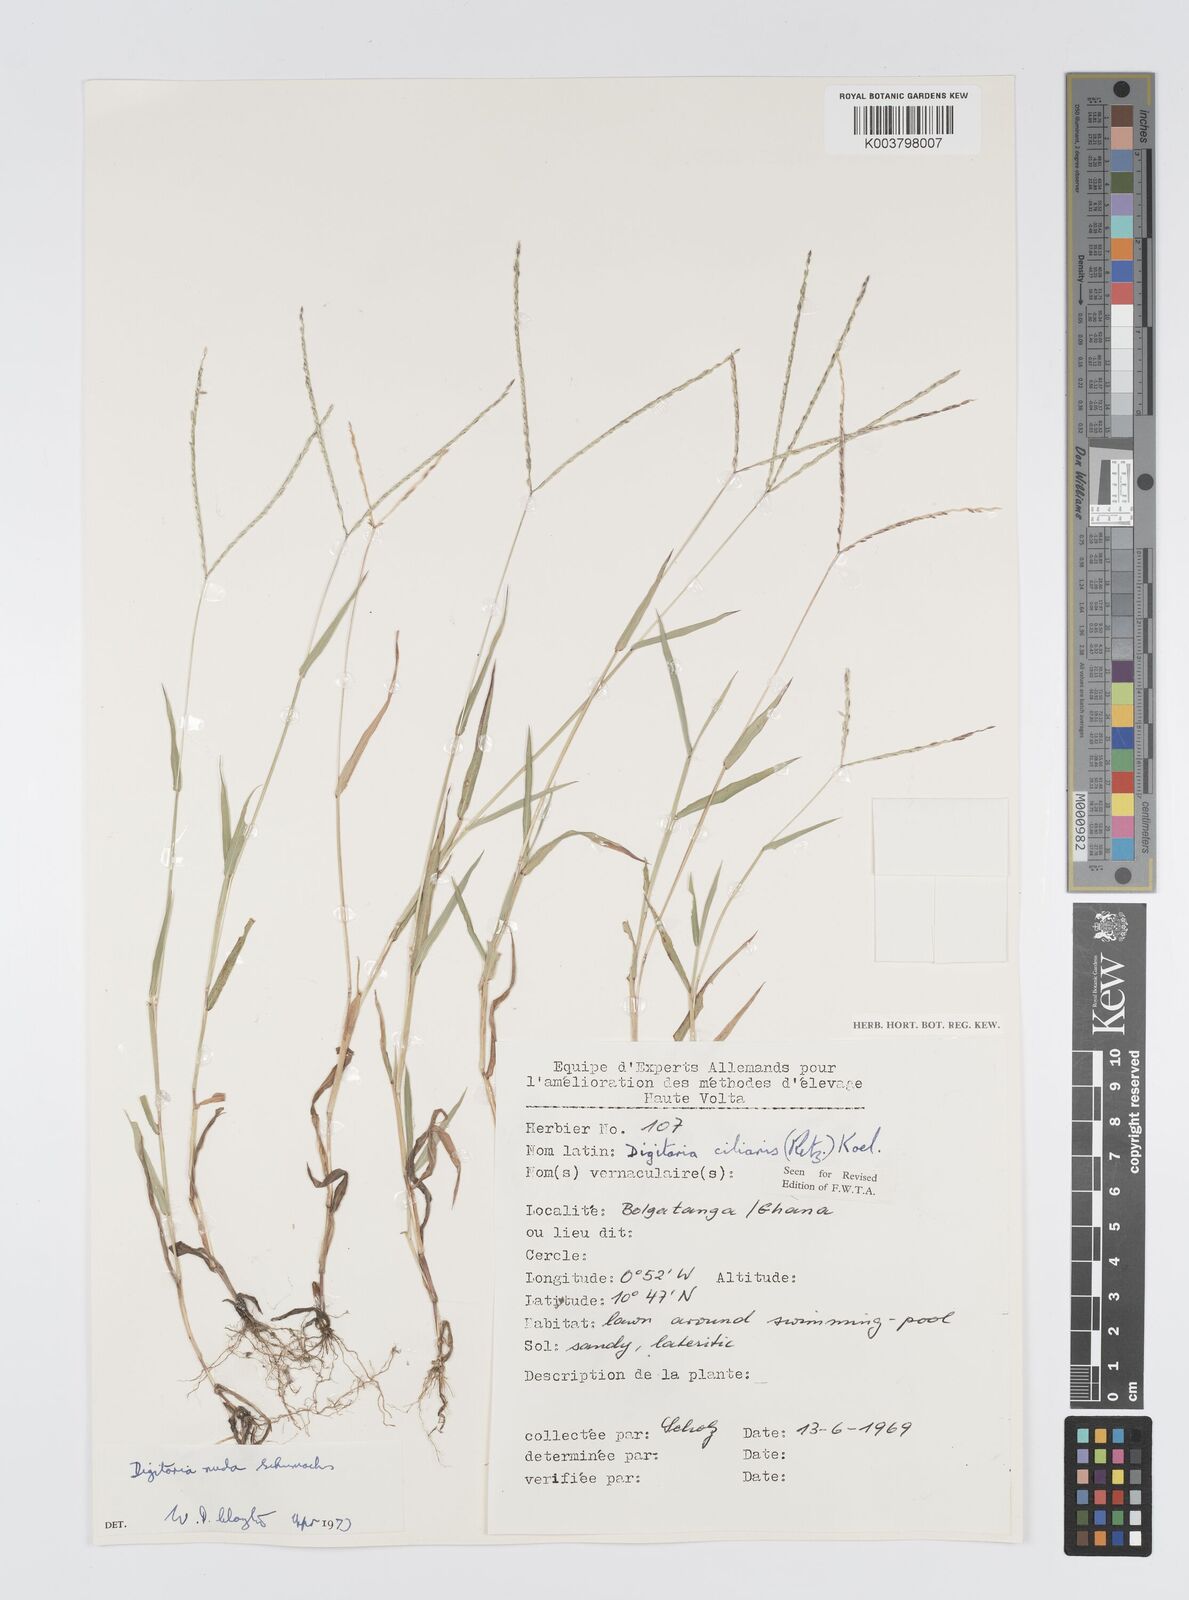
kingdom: Plantae
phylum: Tracheophyta
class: Liliopsida
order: Poales
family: Poaceae
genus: Digitaria
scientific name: Digitaria nuda
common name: Naked crabgrass
